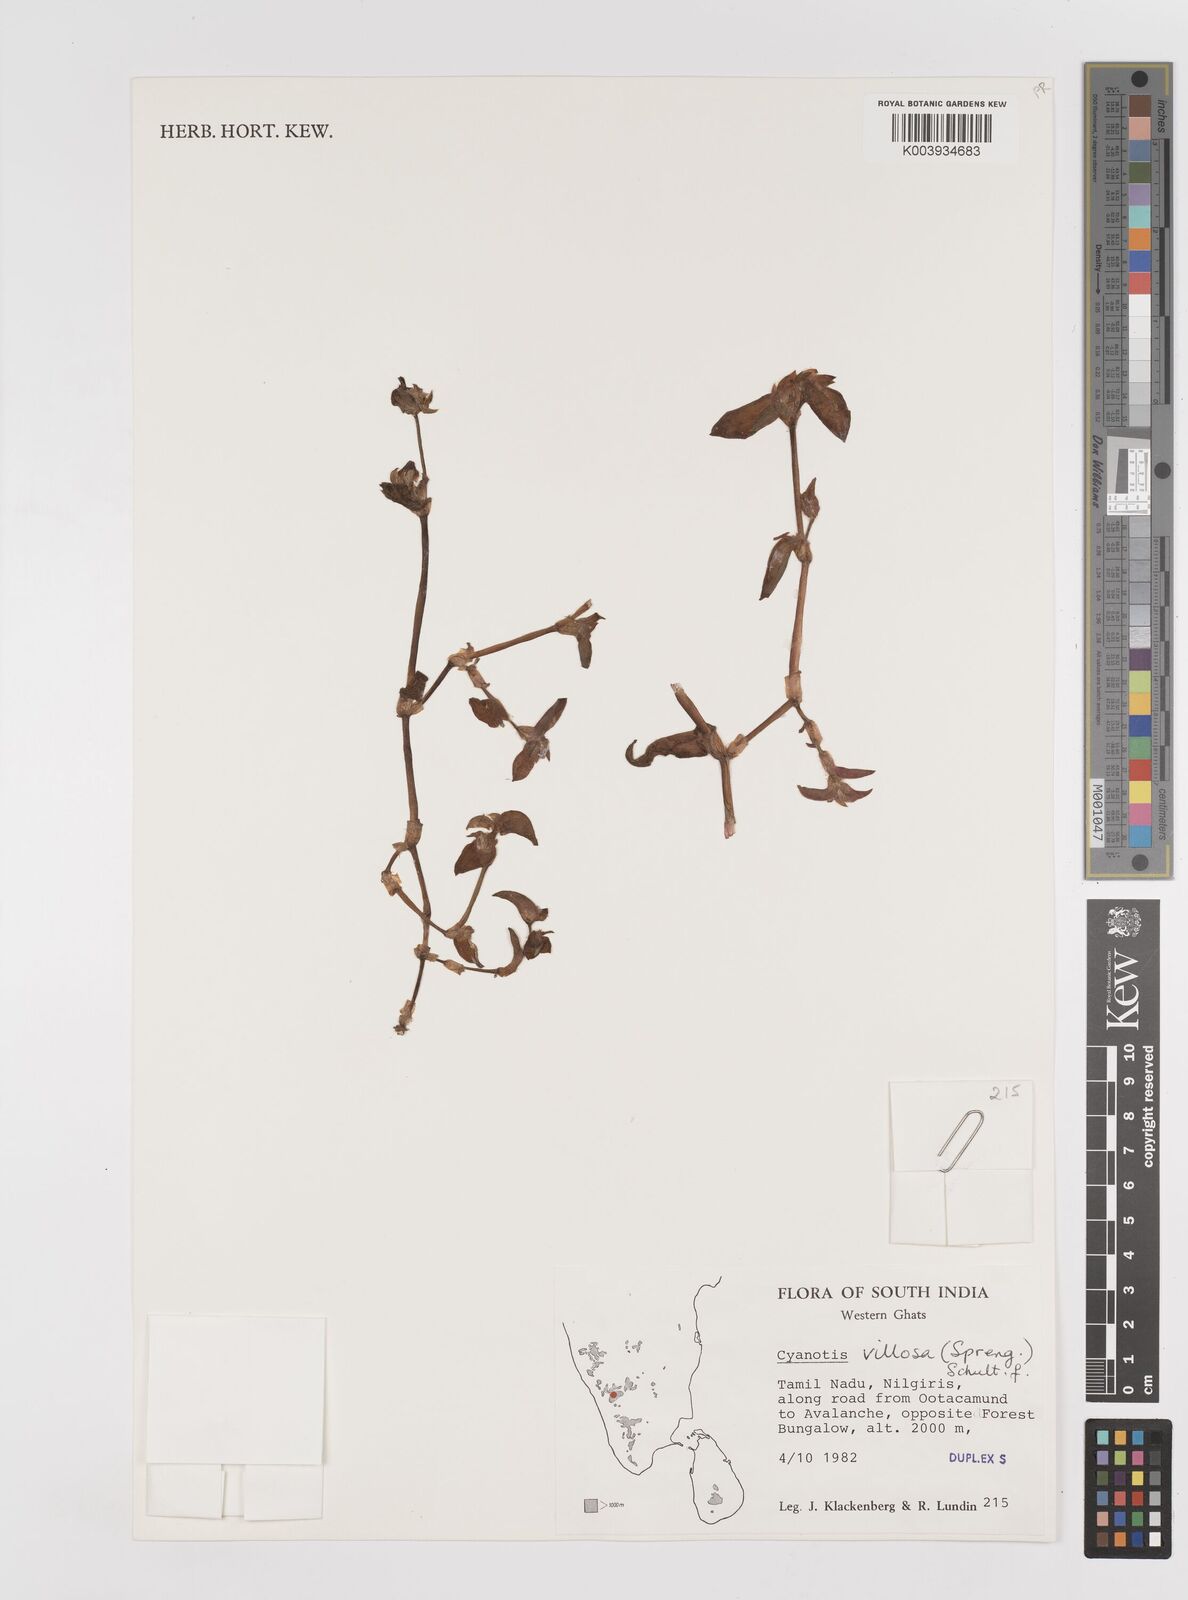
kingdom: Plantae
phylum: Tracheophyta
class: Liliopsida
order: Commelinales
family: Commelinaceae
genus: Cyanotis
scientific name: Cyanotis villosa
